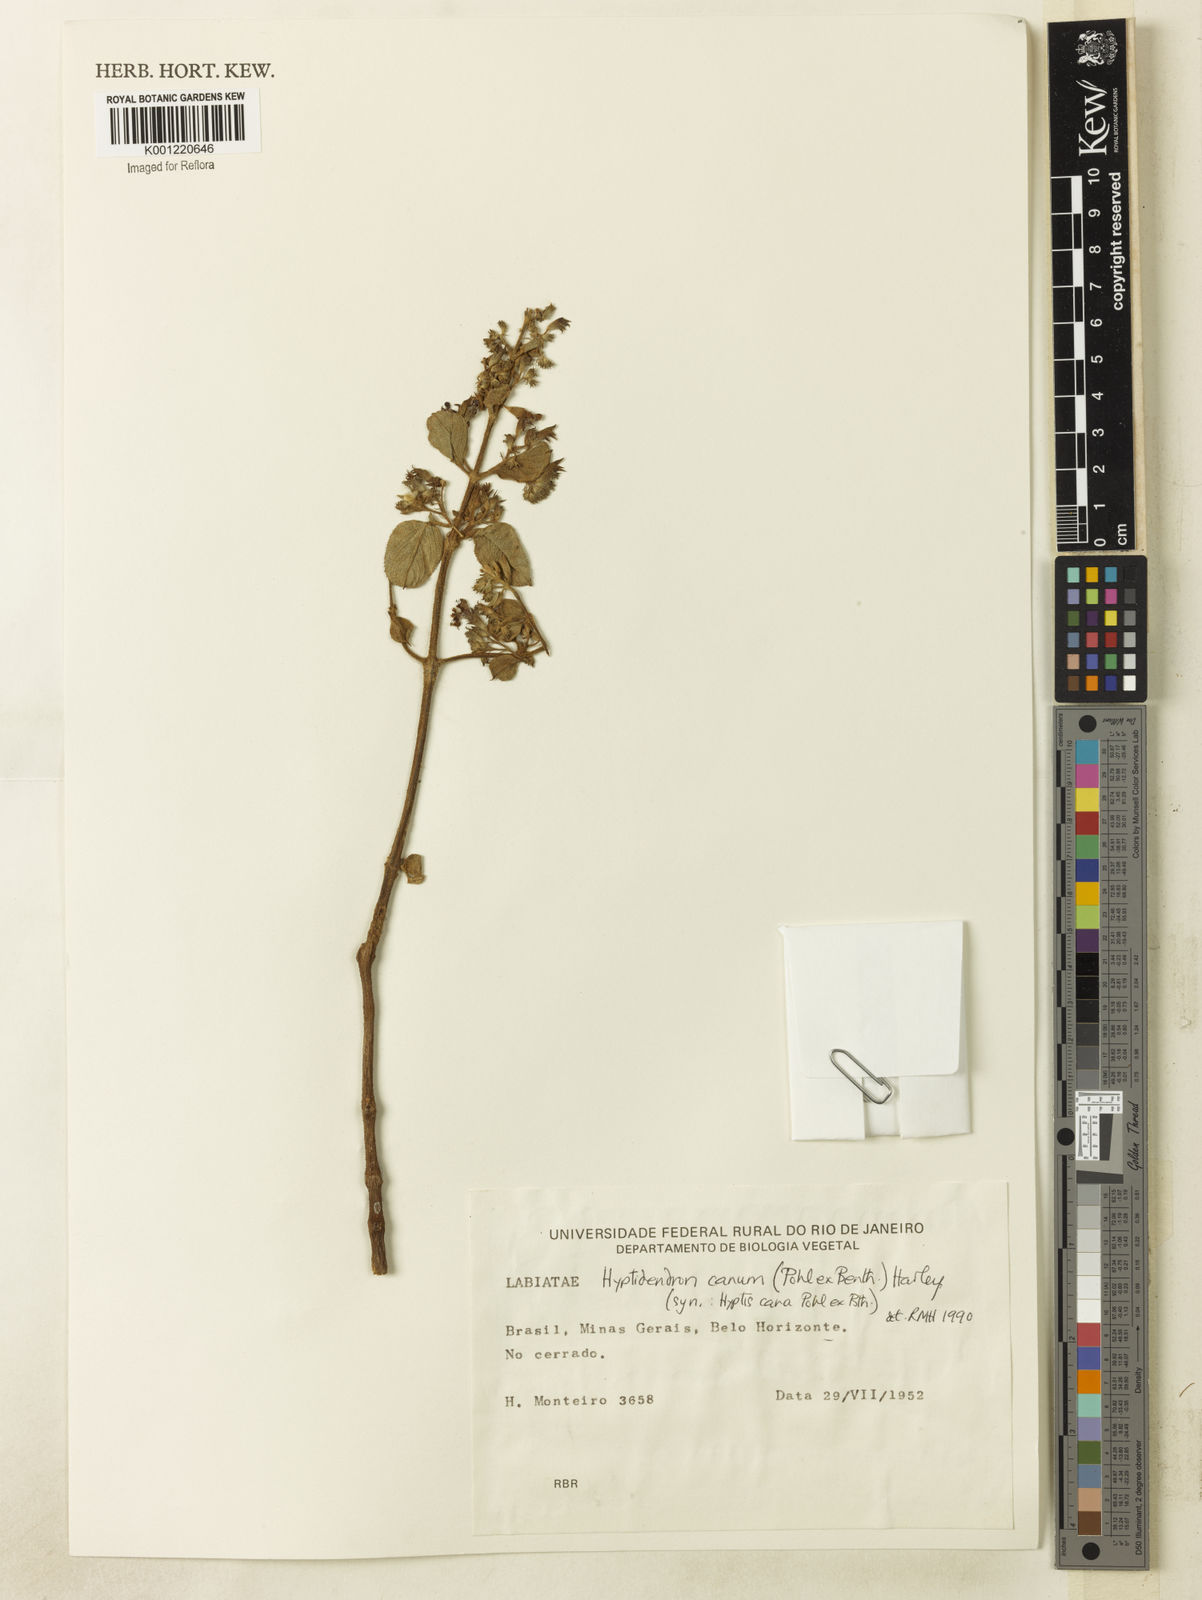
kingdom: Plantae
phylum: Tracheophyta
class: Magnoliopsida
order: Lamiales
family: Lamiaceae
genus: Hyptidendron
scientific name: Hyptidendron canum
